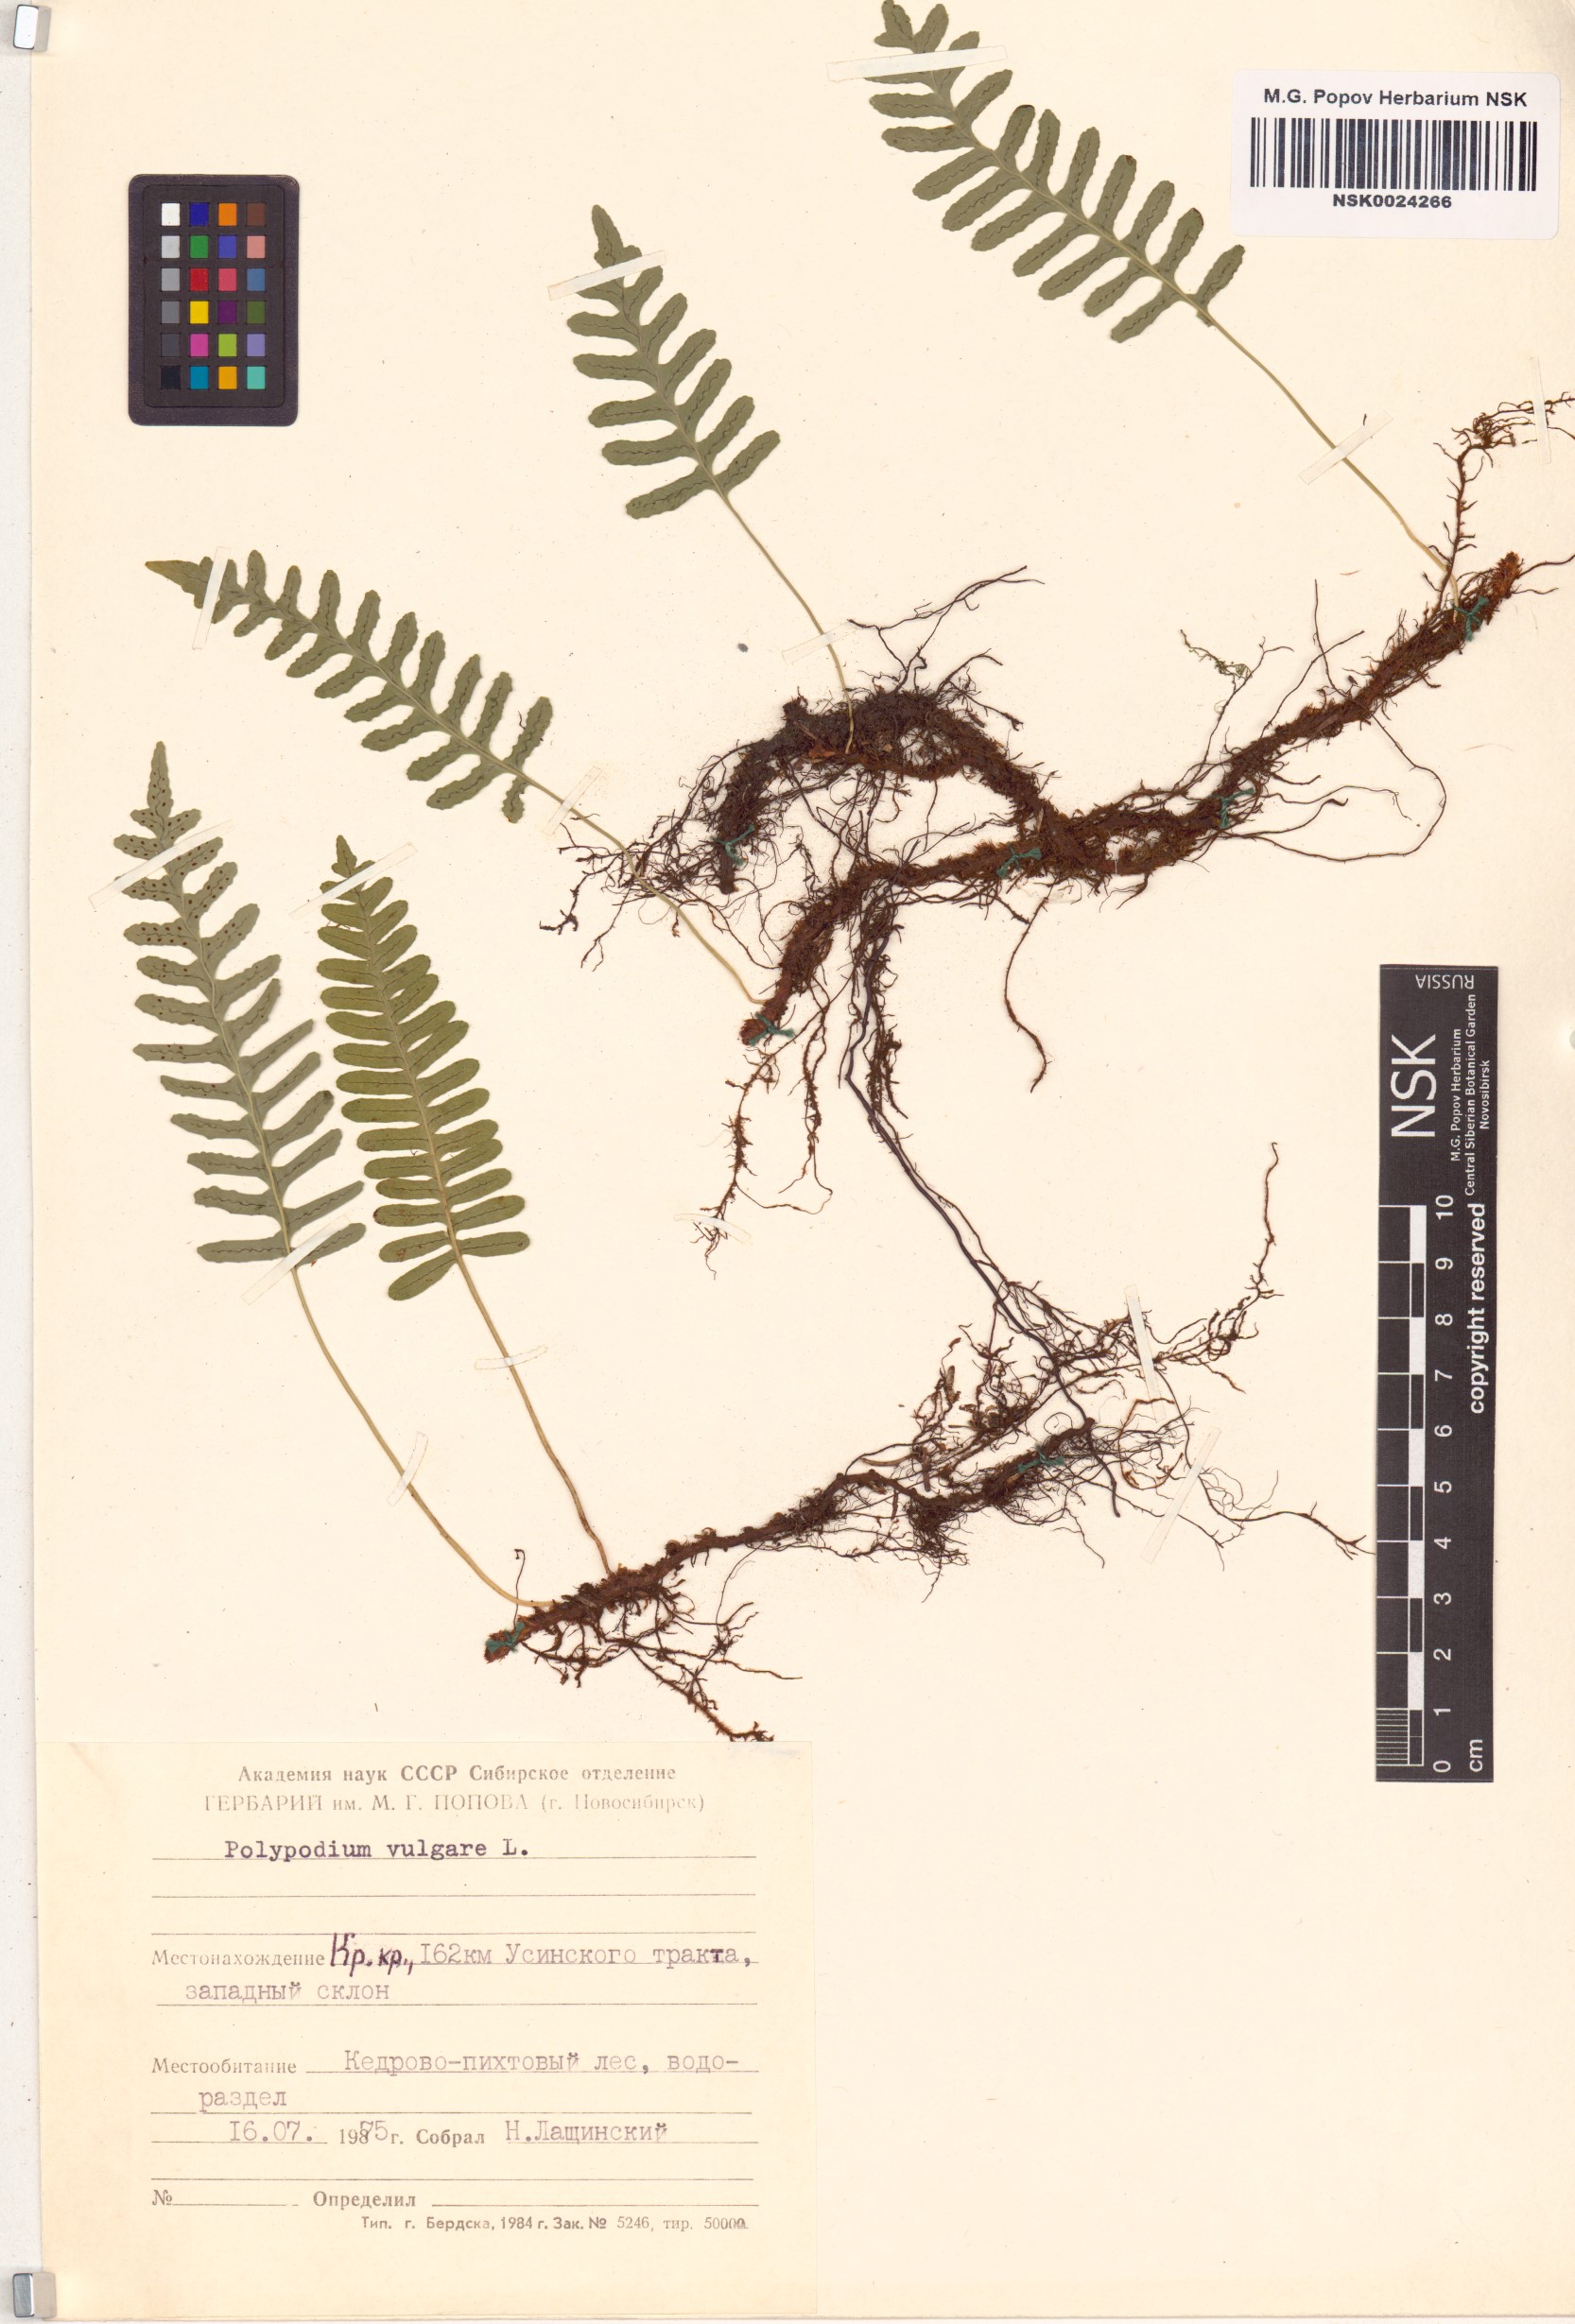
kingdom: Plantae
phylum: Tracheophyta
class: Polypodiopsida
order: Polypodiales
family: Polypodiaceae
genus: Polypodium
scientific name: Polypodium vulgare
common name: Common polypody
